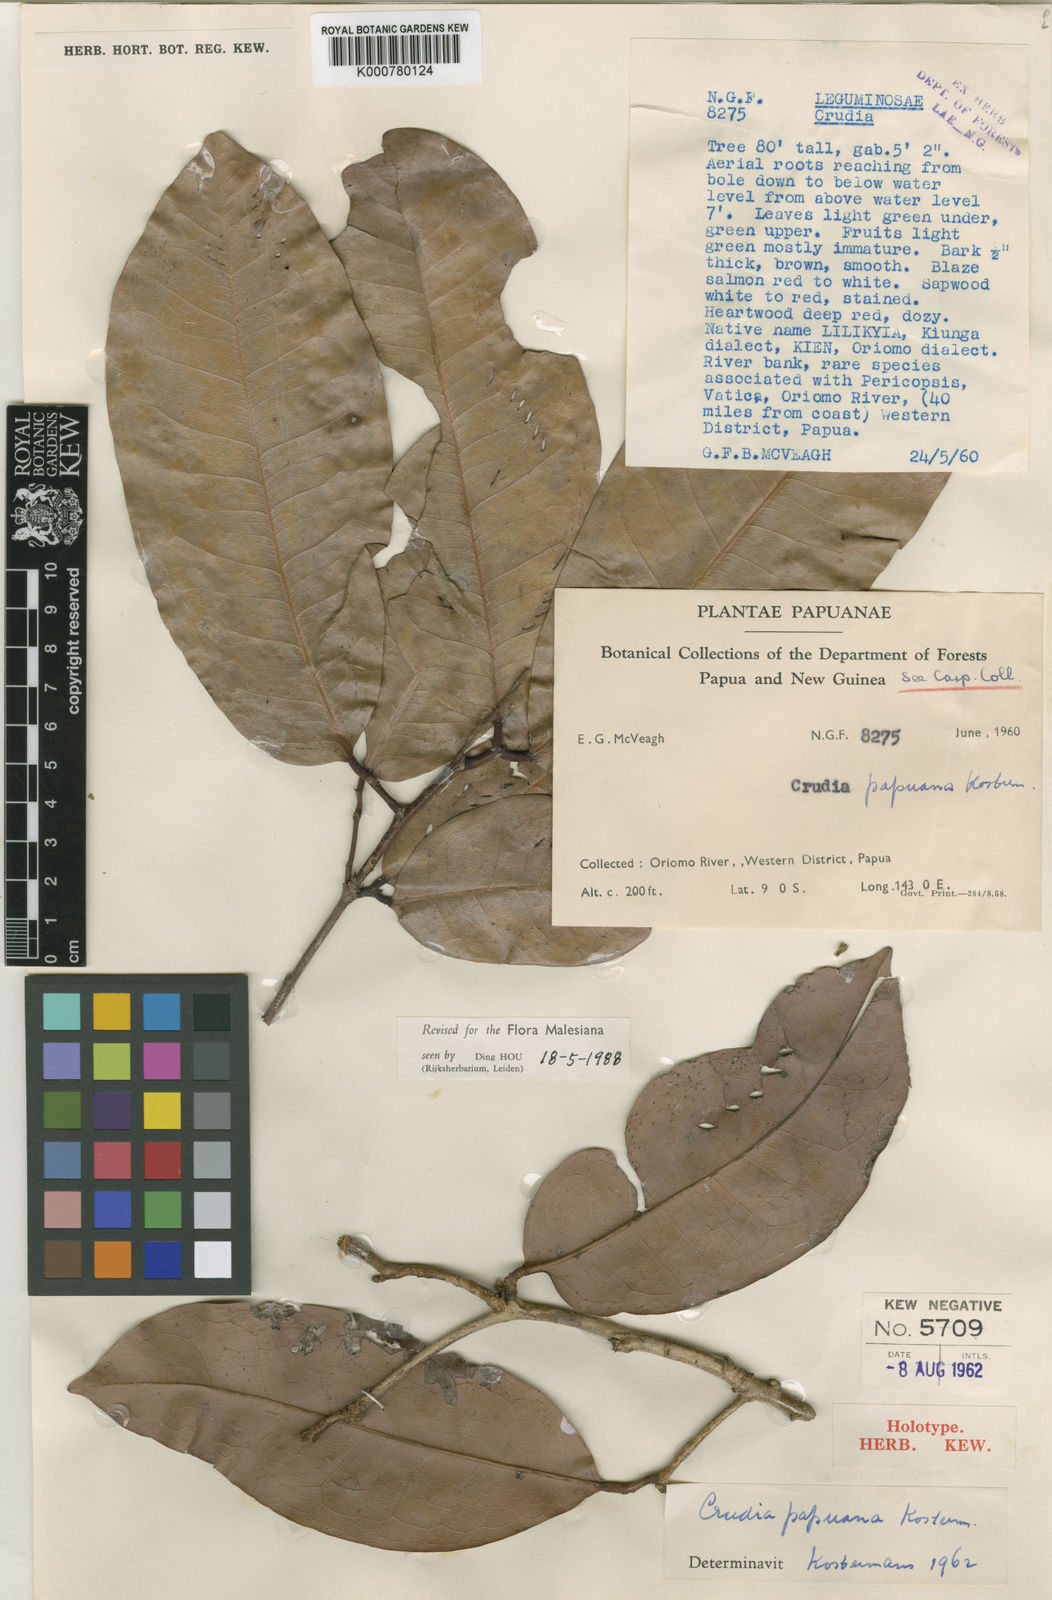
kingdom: Plantae
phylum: Tracheophyta
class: Magnoliopsida
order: Fabales
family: Fabaceae
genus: Crudia
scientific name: Crudia papuana
